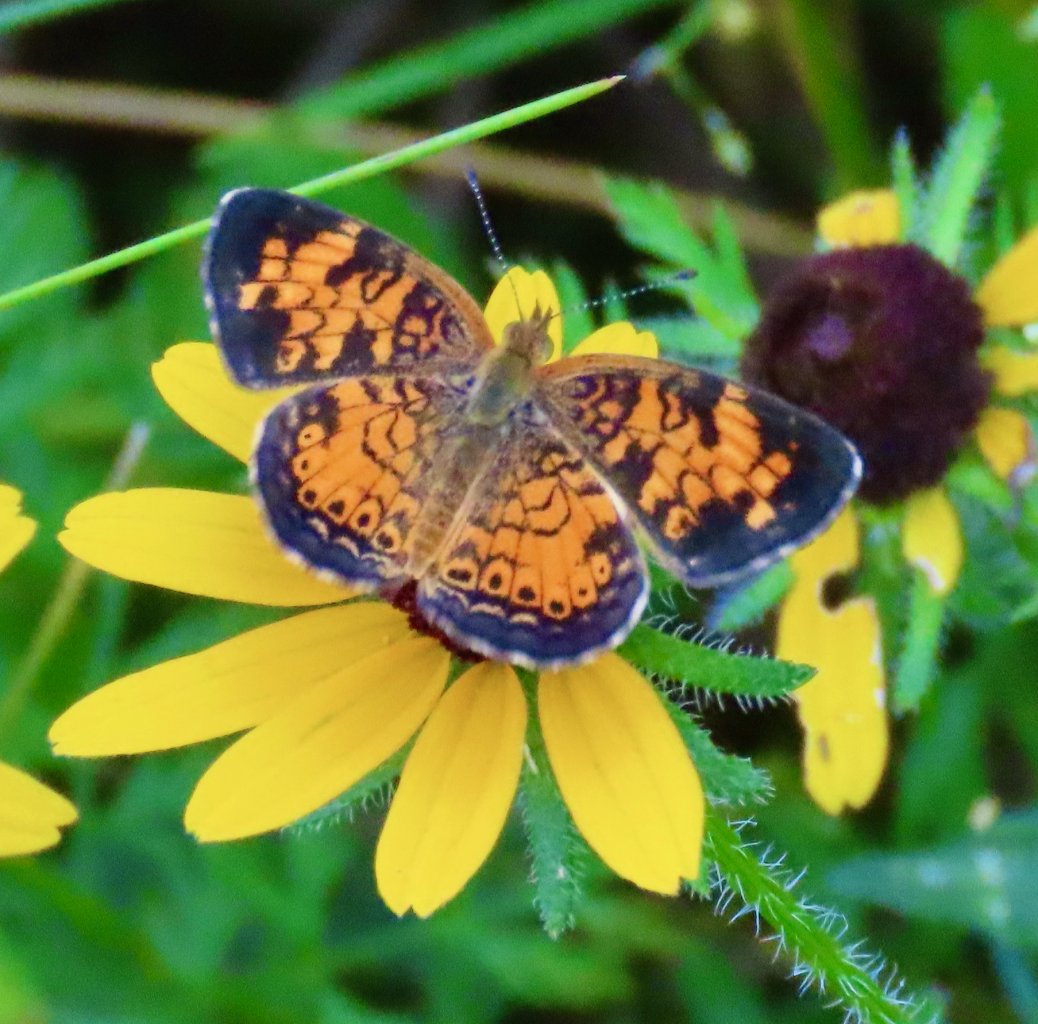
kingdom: Animalia
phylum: Arthropoda
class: Insecta
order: Lepidoptera
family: Nymphalidae
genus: Phyciodes
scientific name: Phyciodes tharos
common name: Pearl Crescent
